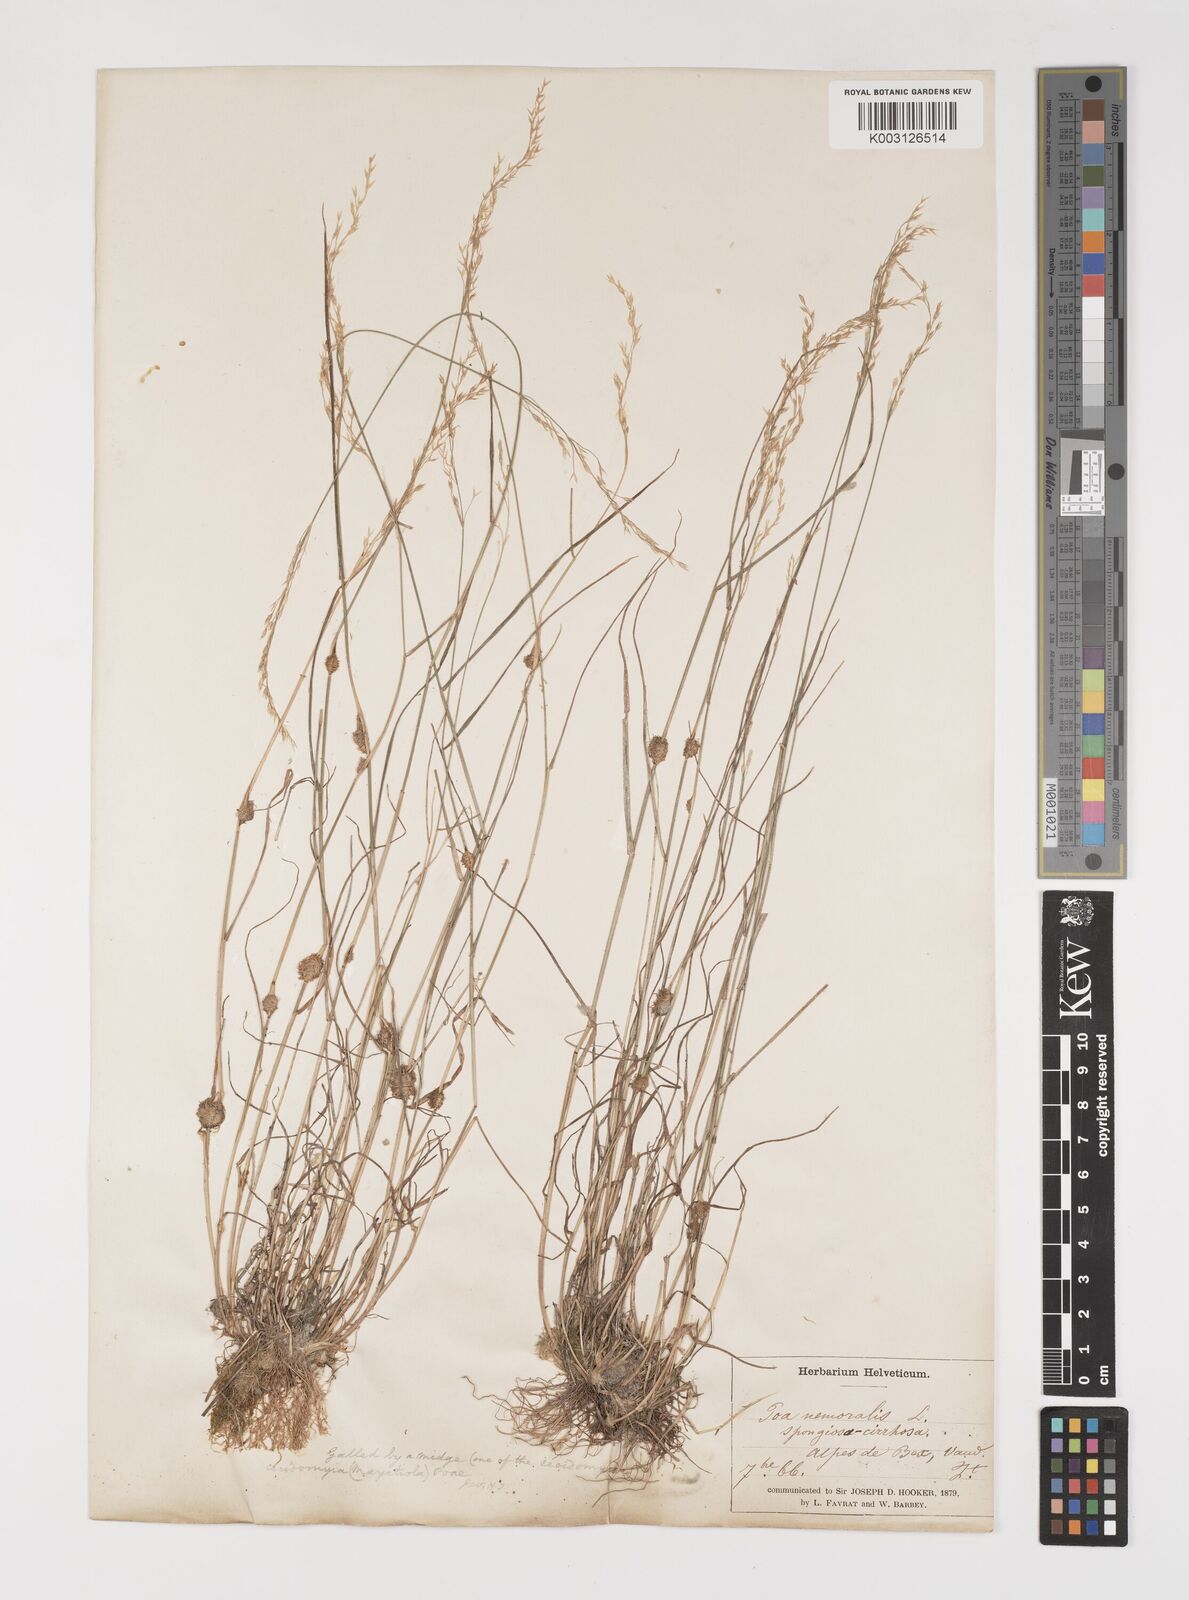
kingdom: Plantae
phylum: Tracheophyta
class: Liliopsida
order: Poales
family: Poaceae
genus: Poa
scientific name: Poa nemoralis
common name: Wood bluegrass
